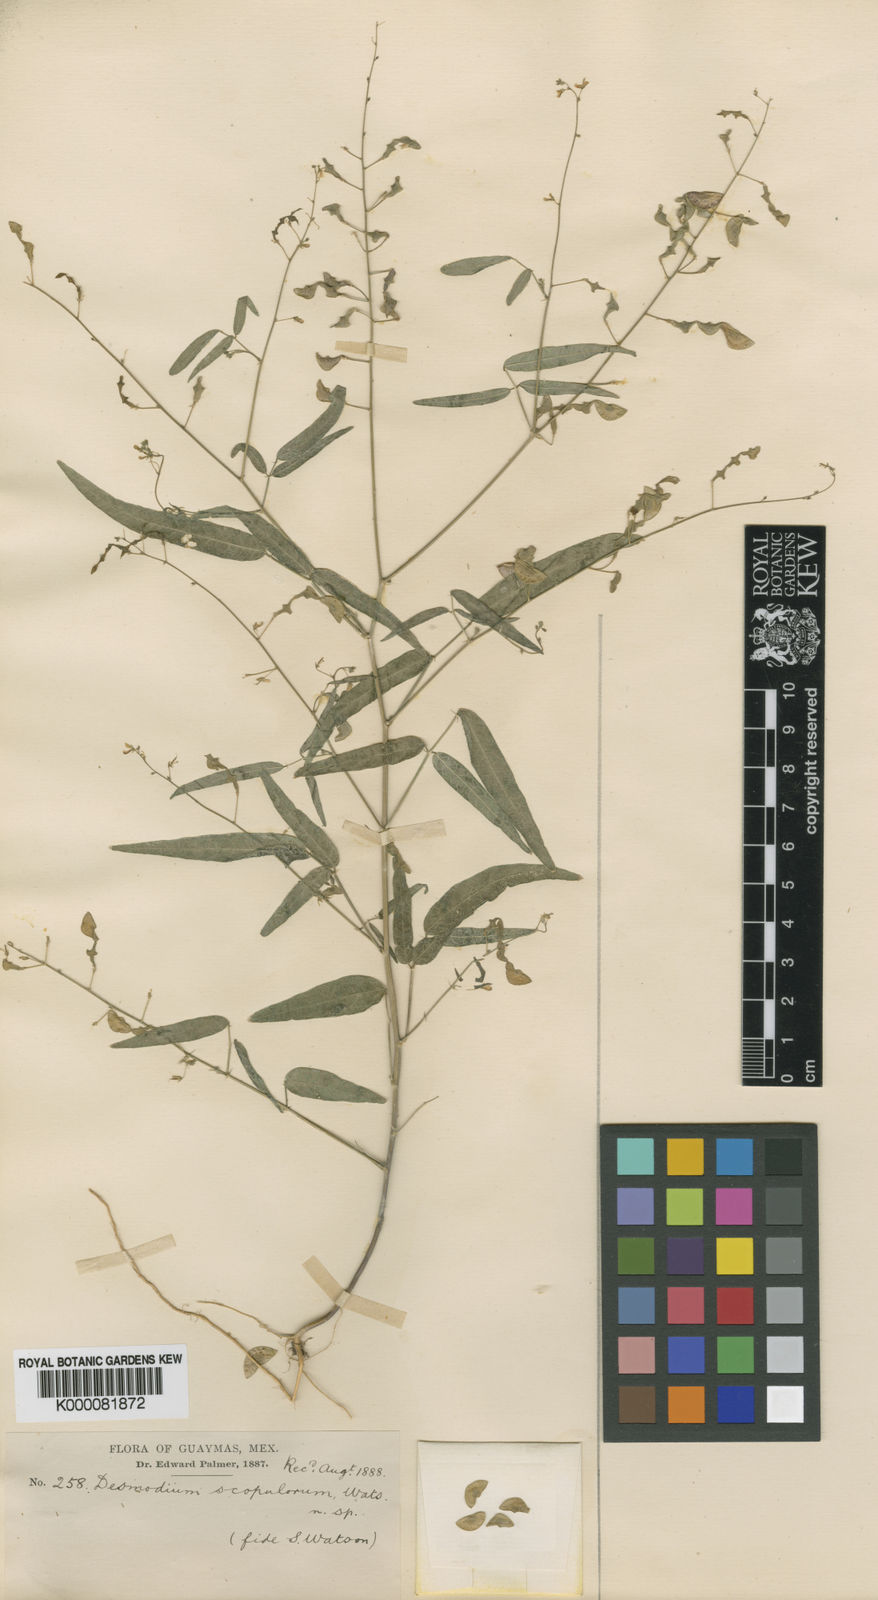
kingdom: Plantae
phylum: Tracheophyta
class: Magnoliopsida
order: Fabales
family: Fabaceae
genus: Desmodium
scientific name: Desmodium scopulorum
